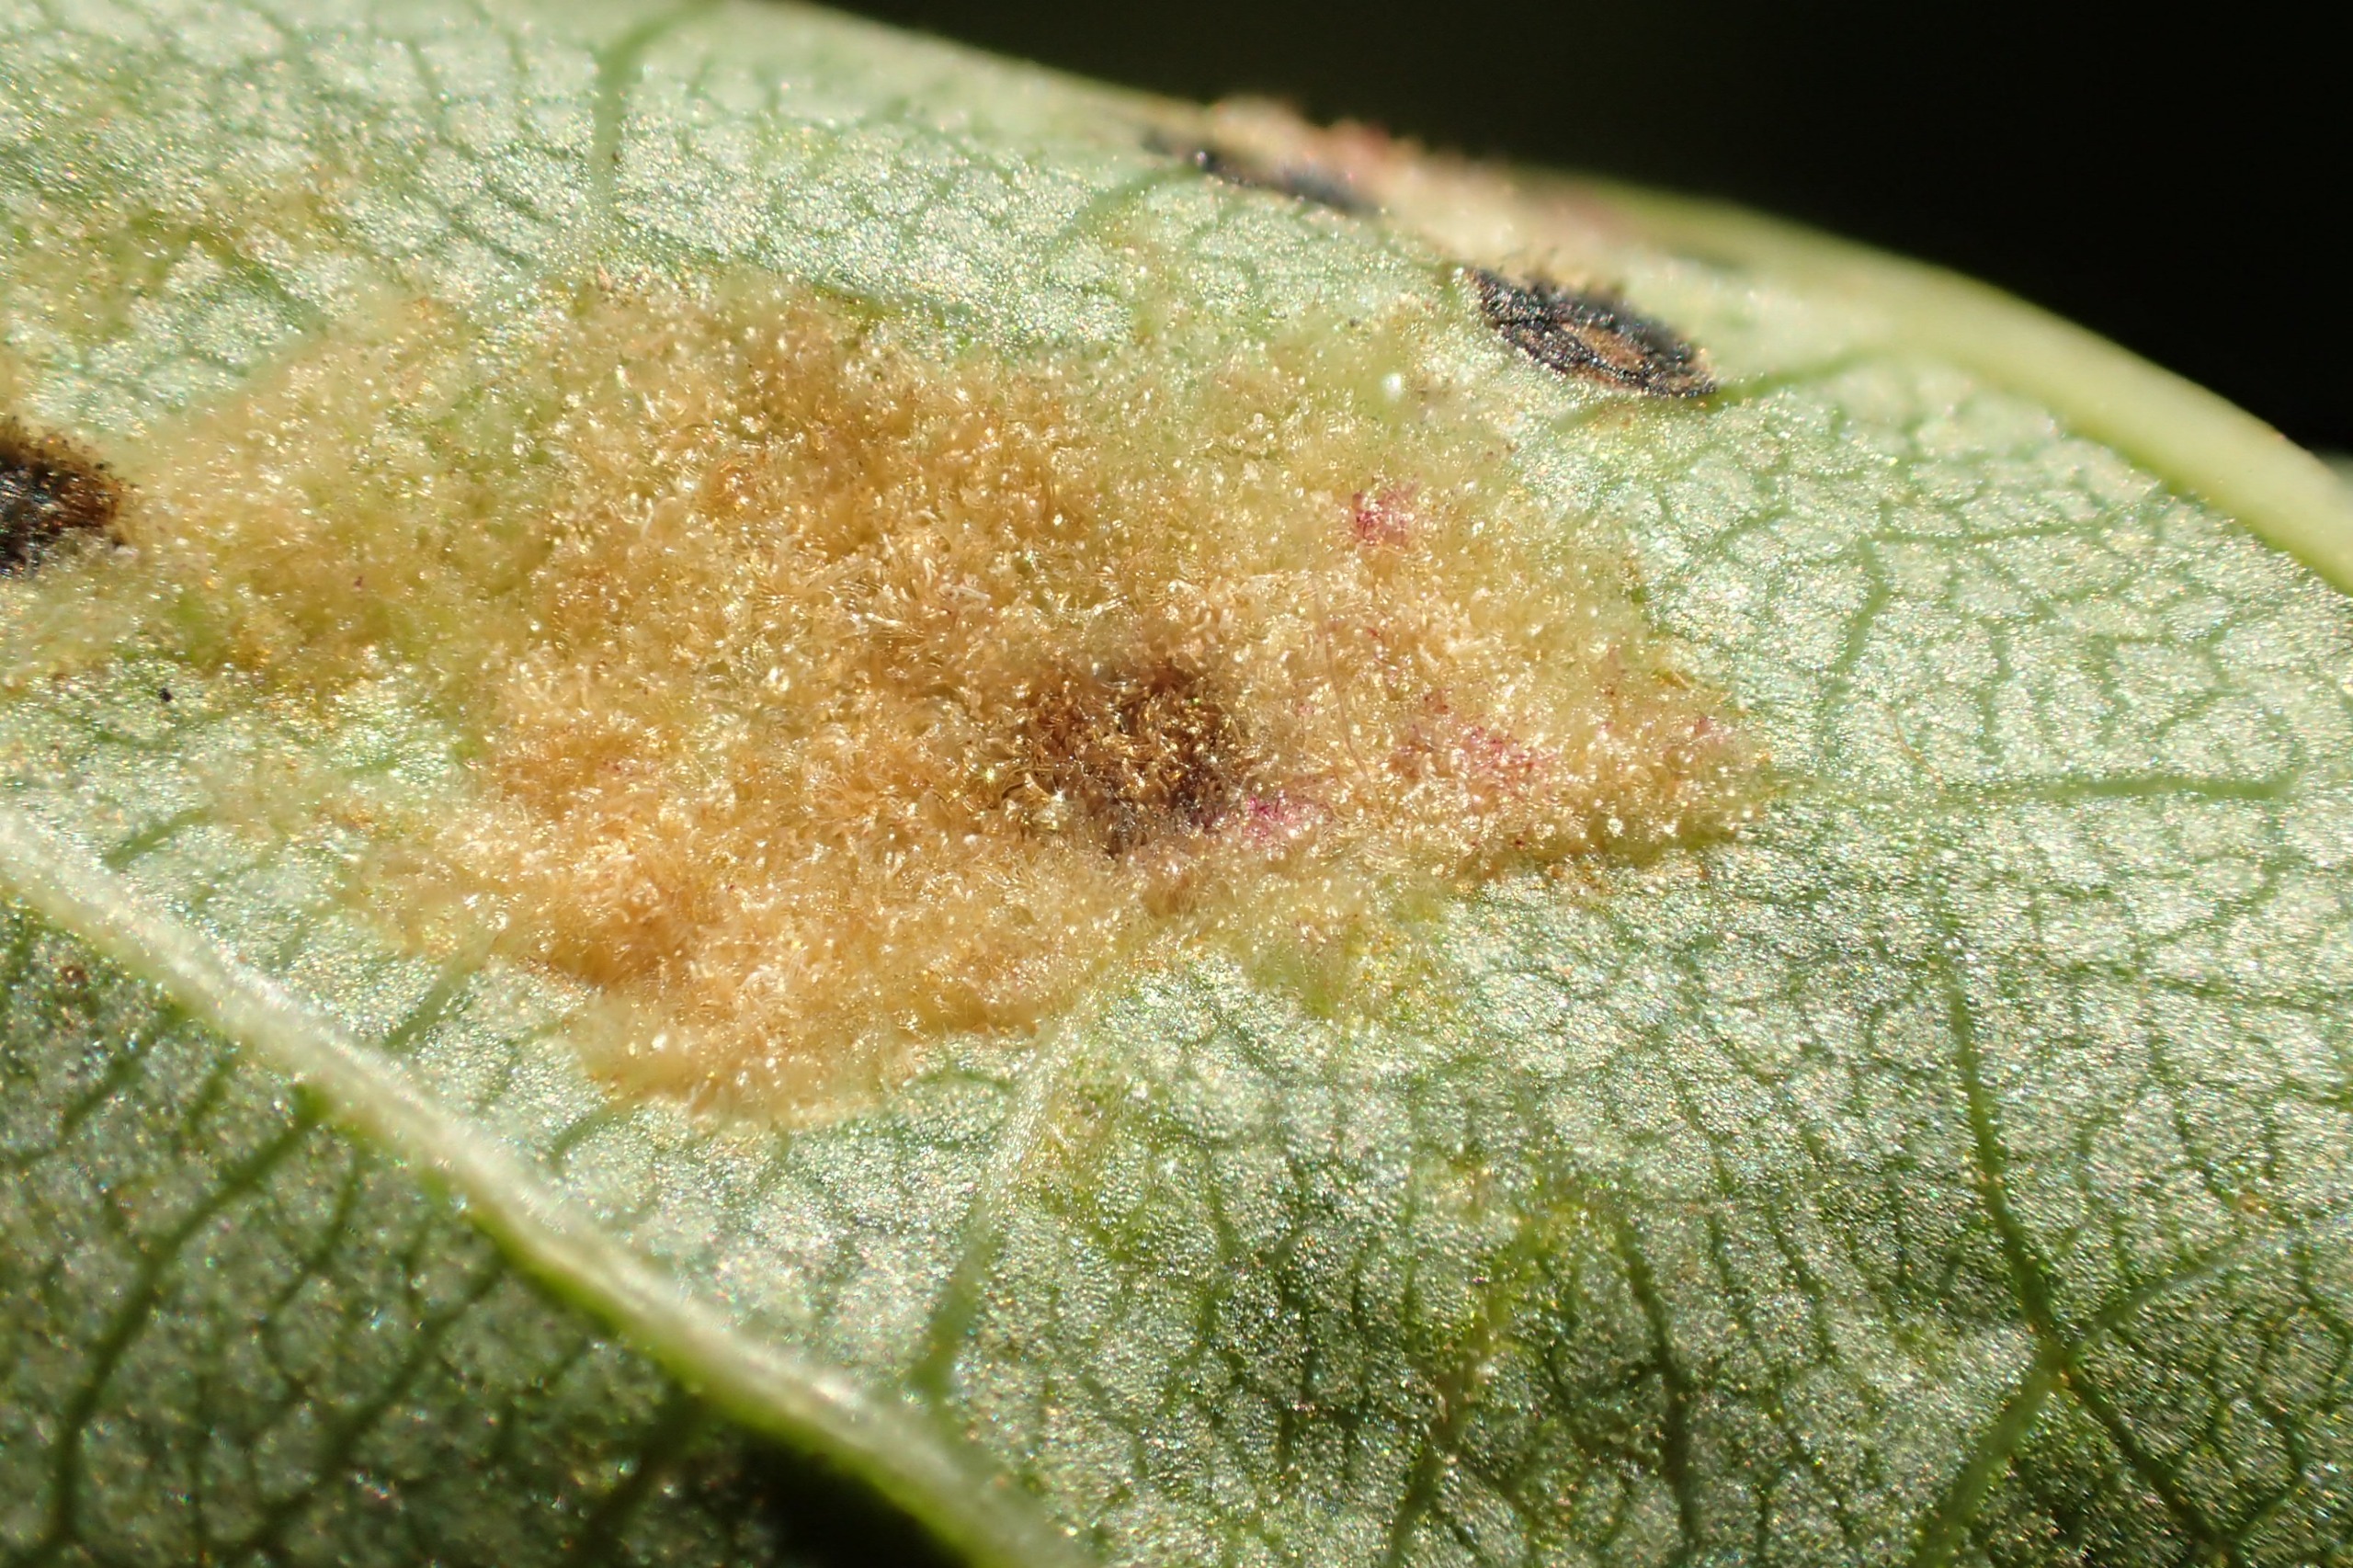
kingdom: Animalia
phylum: Arthropoda
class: Arachnida
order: Trombidiformes
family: Eriophyidae
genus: Eriophyes
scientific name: Eriophyes leiosoma
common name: Linderustgalmide
